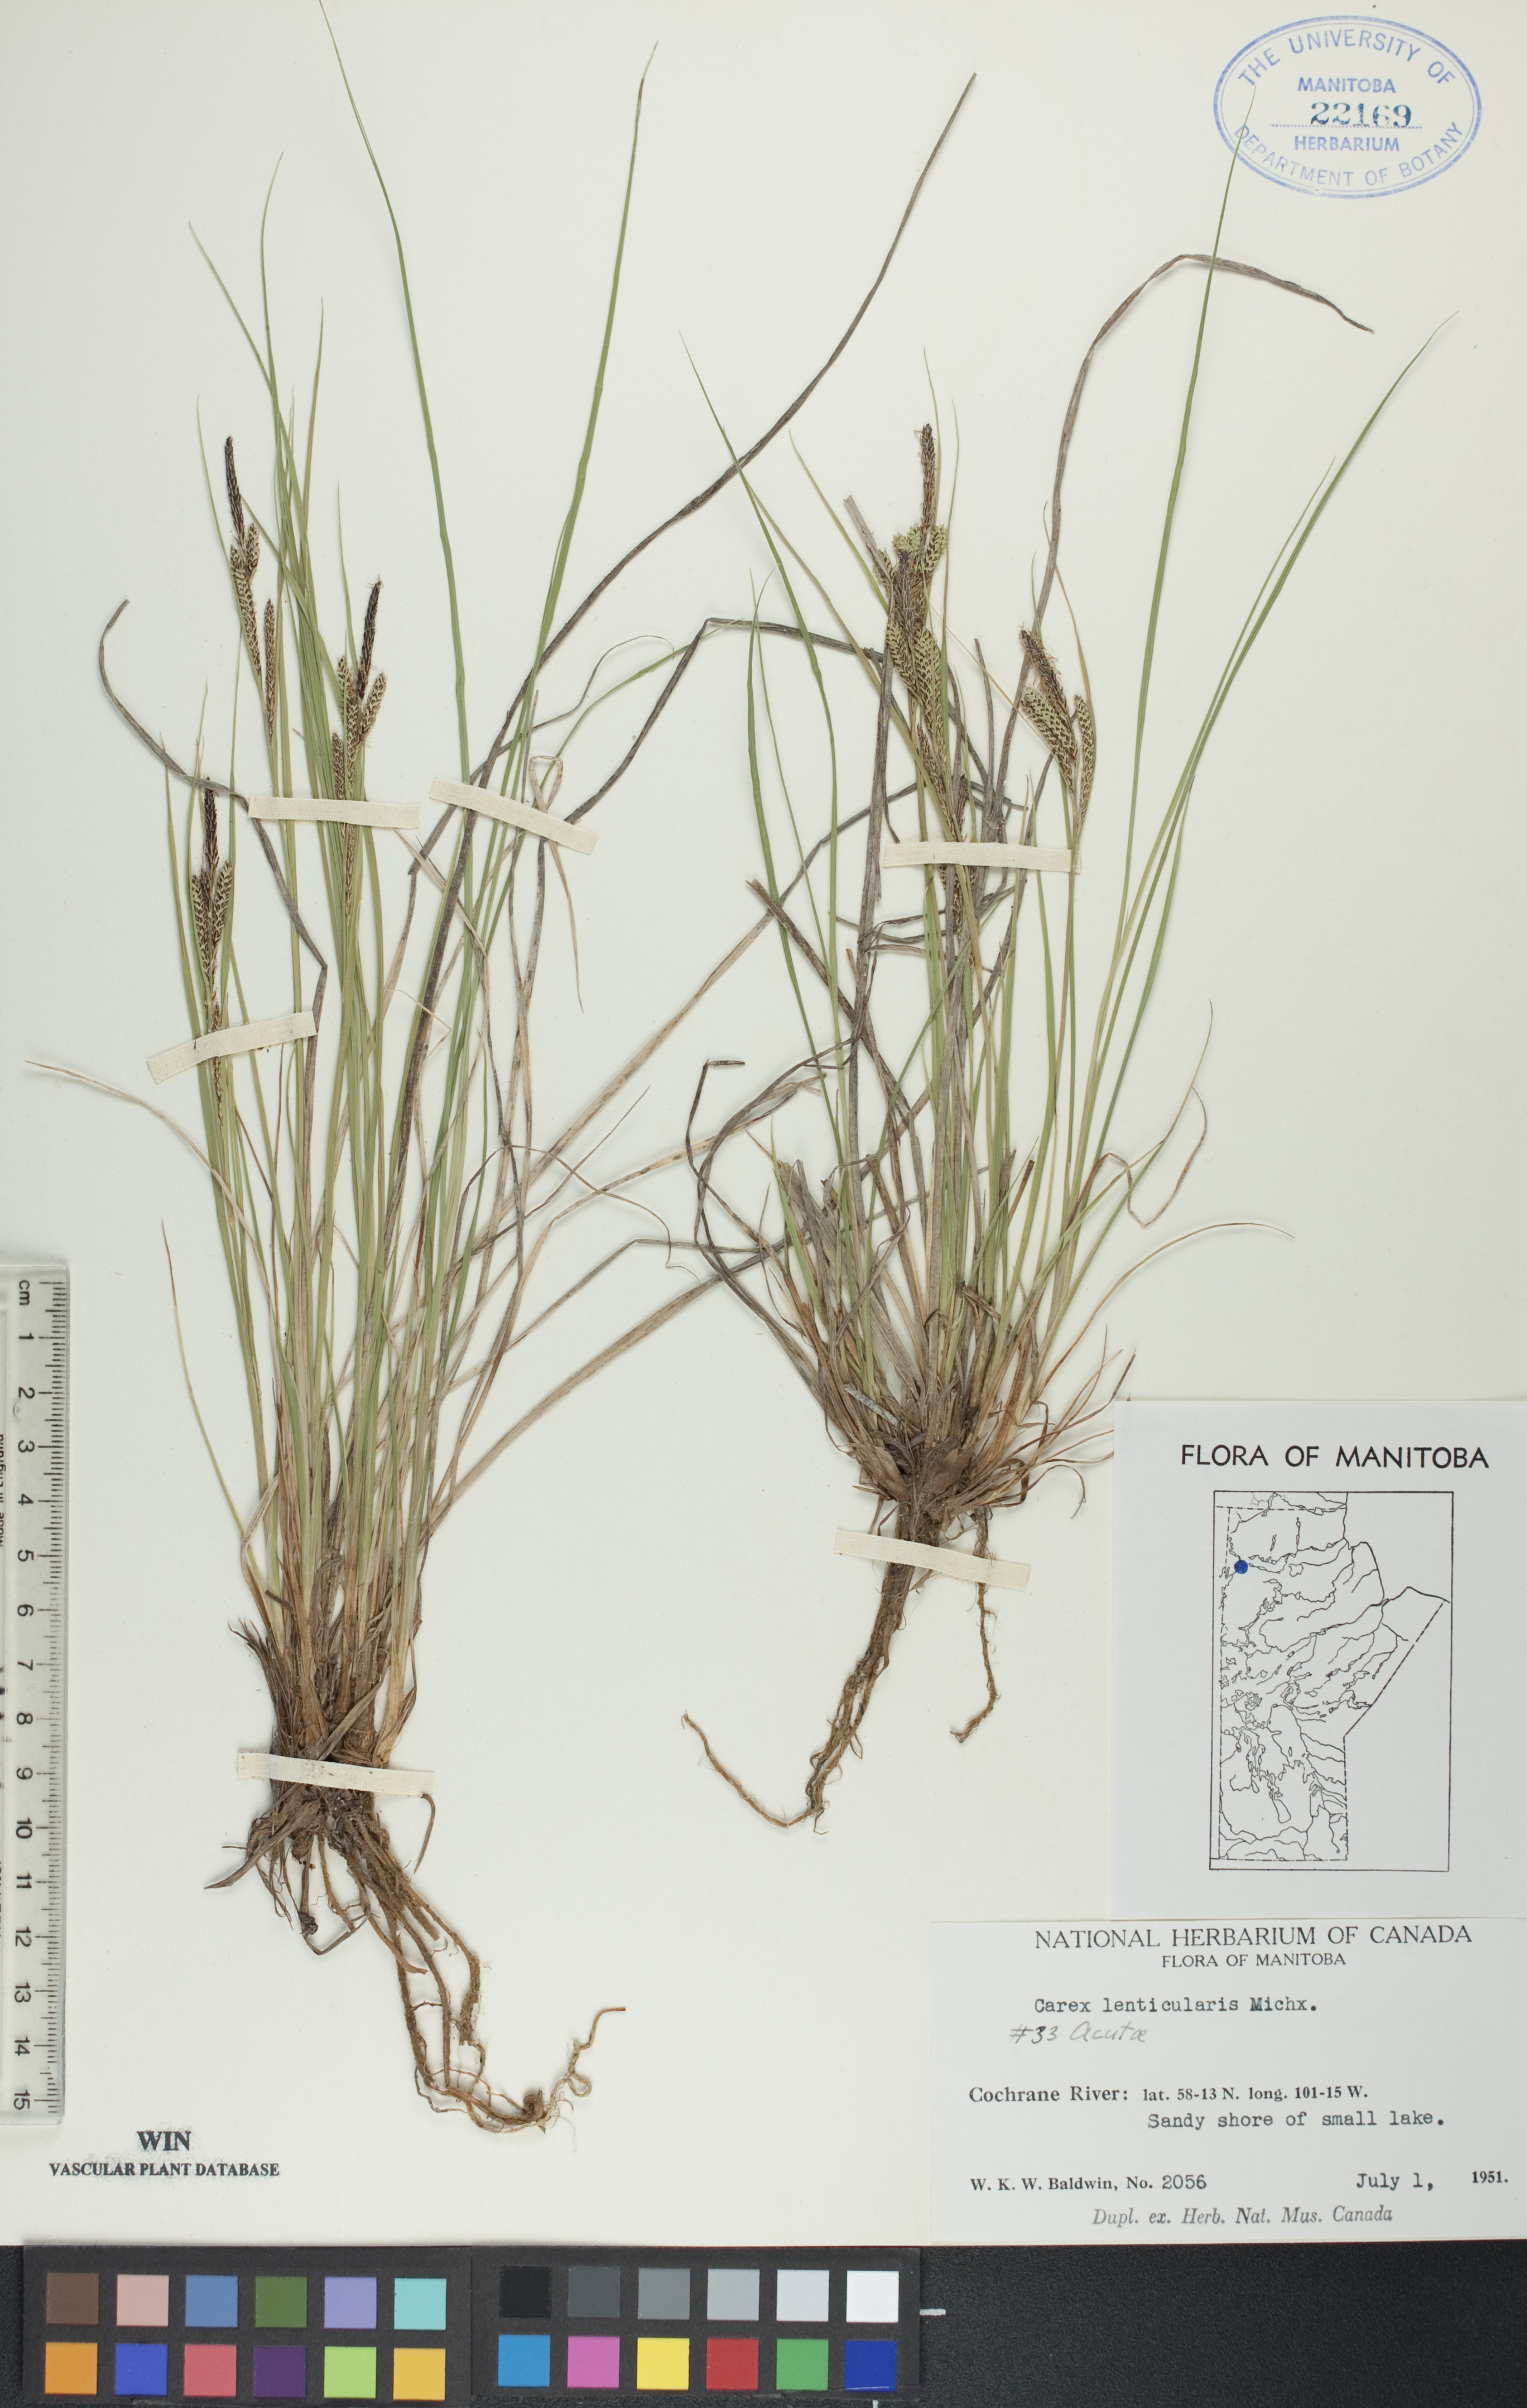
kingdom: Plantae
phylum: Tracheophyta
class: Liliopsida
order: Poales
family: Cyperaceae
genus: Carex
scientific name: Carex lenticularis
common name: Lakeshore sedge
